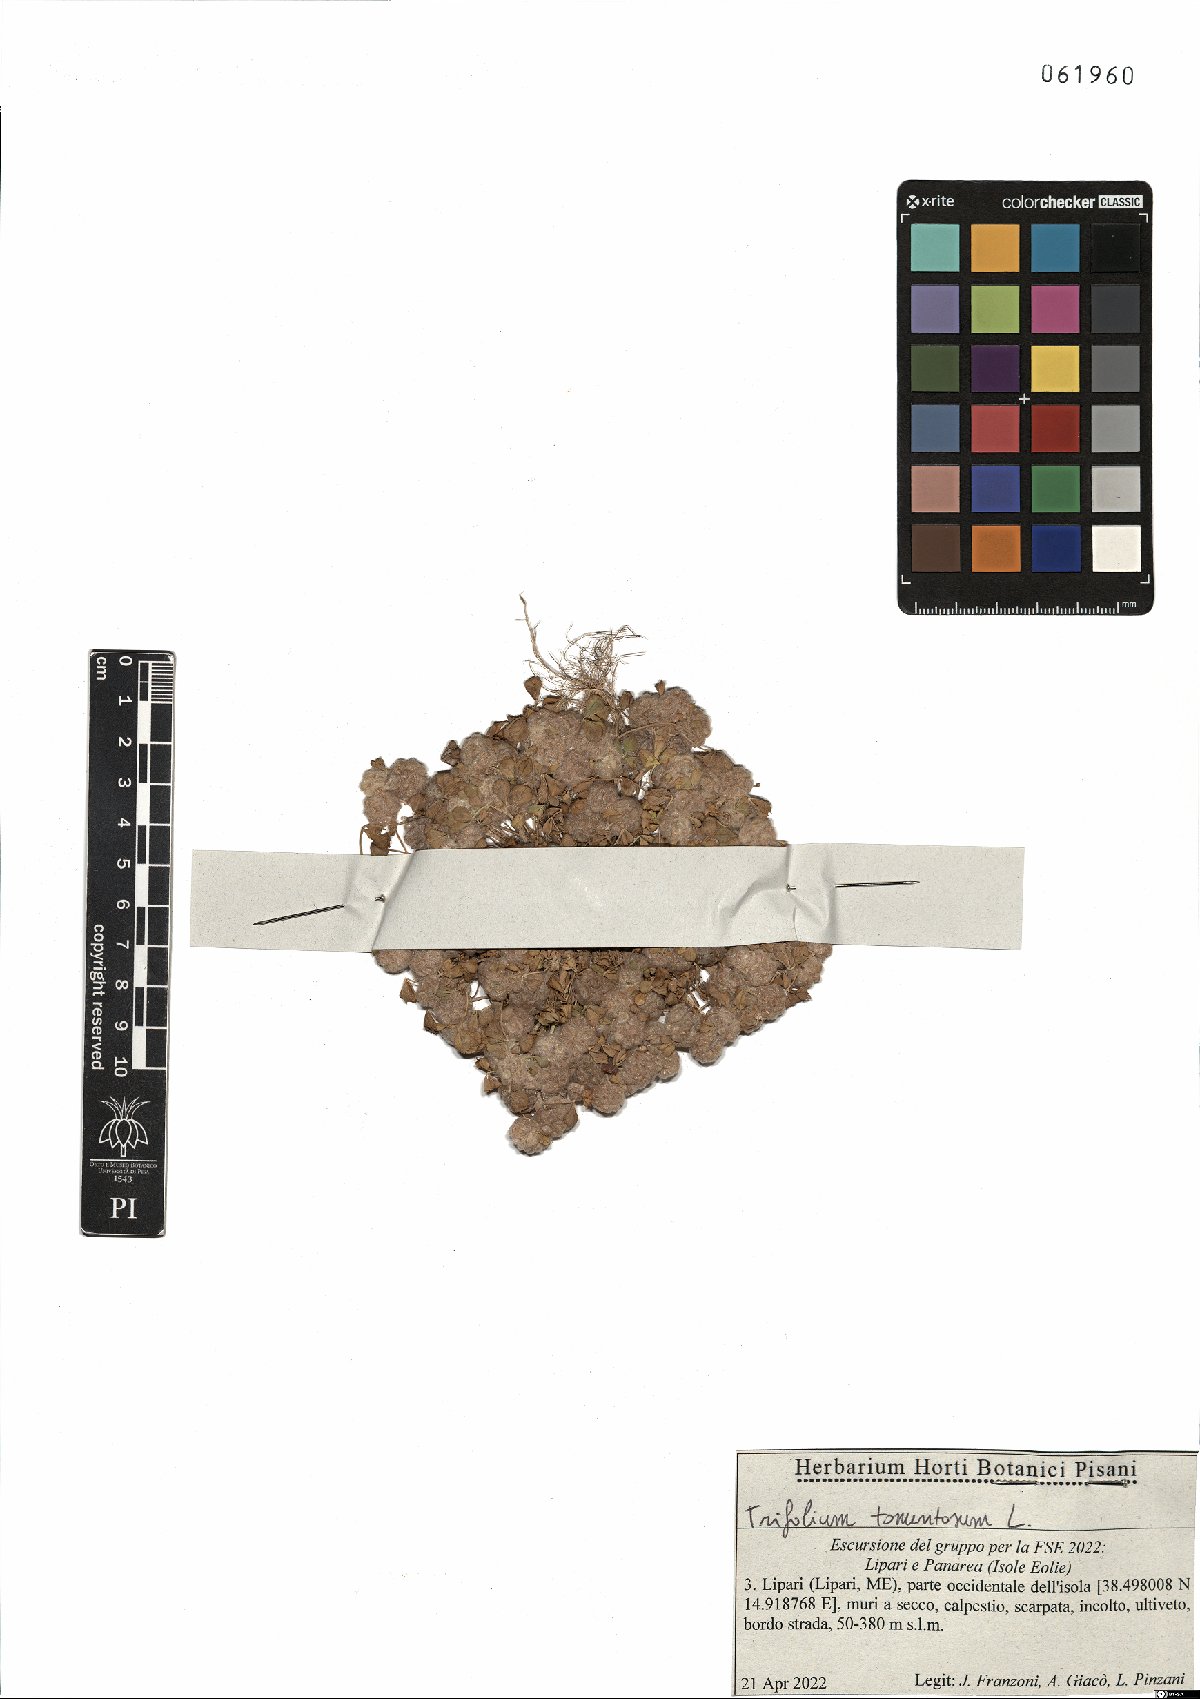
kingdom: Plantae
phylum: Tracheophyta
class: Magnoliopsida
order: Fabales
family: Fabaceae
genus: Trifolium
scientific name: Trifolium tomentosum
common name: Woolly clover
